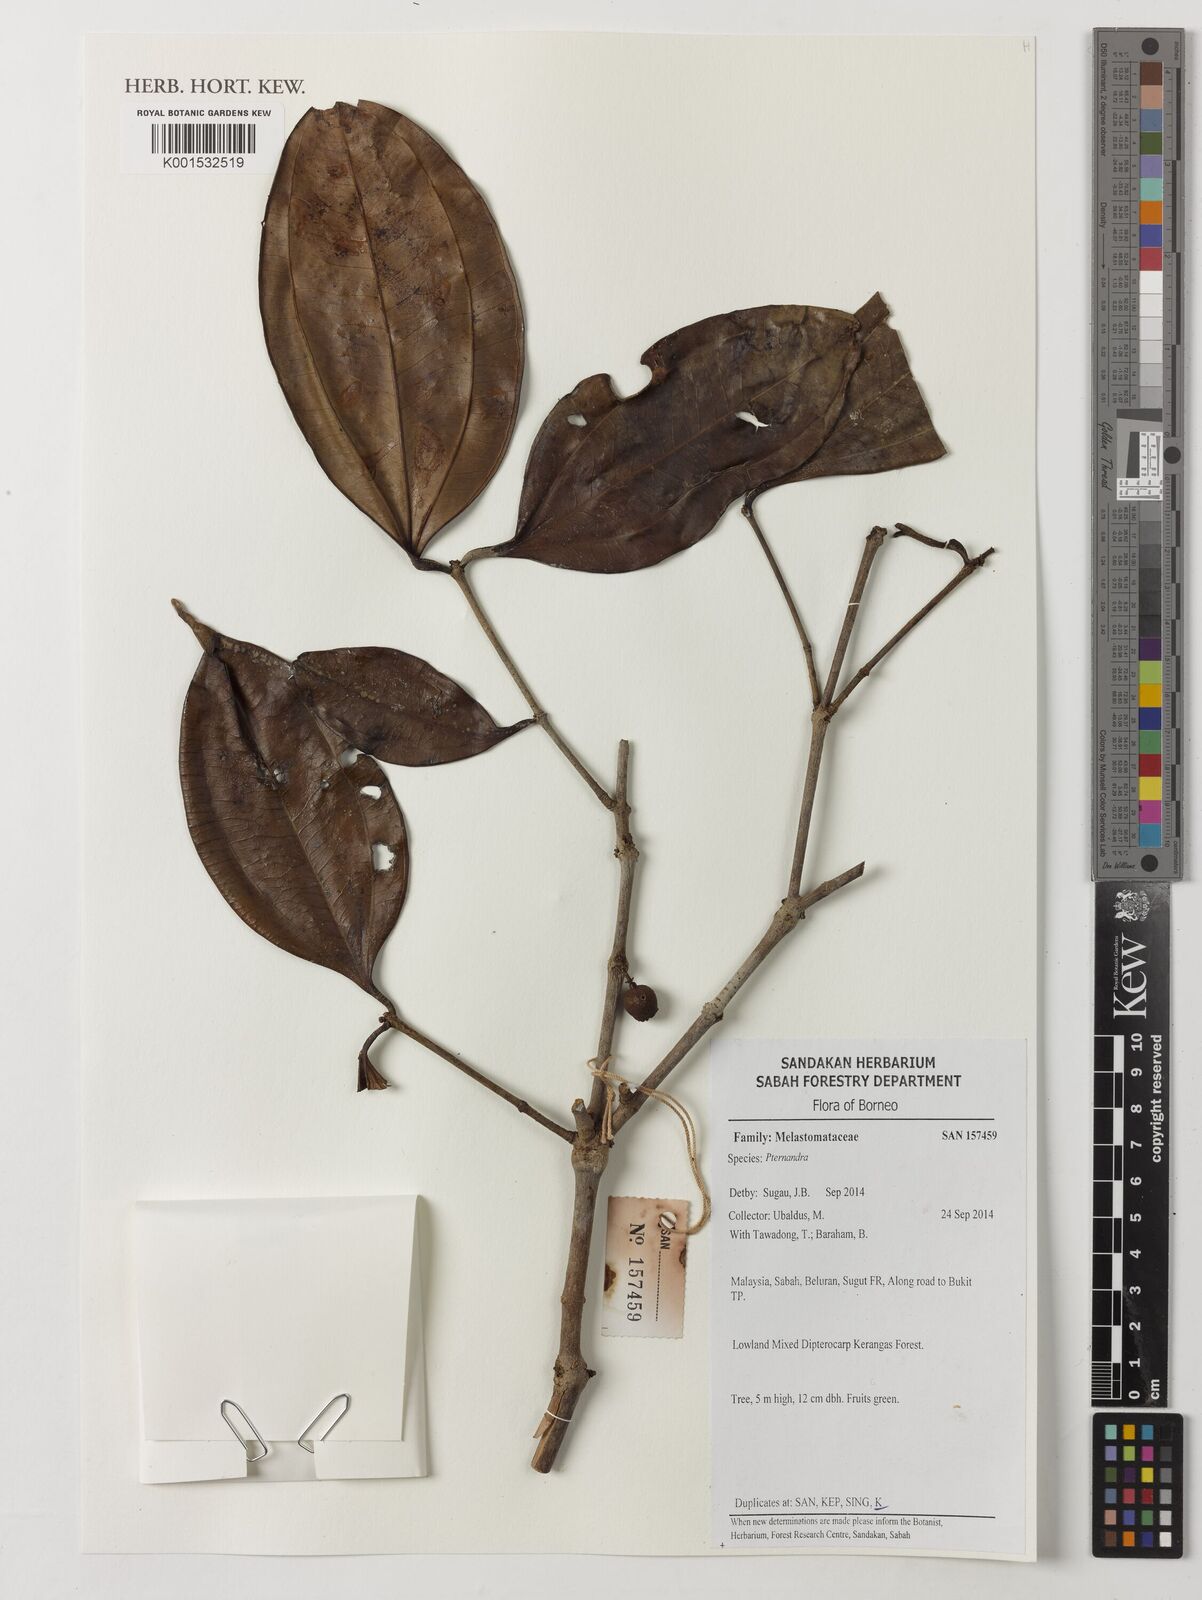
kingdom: Plantae
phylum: Tracheophyta
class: Magnoliopsida
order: Myrtales
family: Melastomataceae
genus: Pternandra
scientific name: Pternandra
